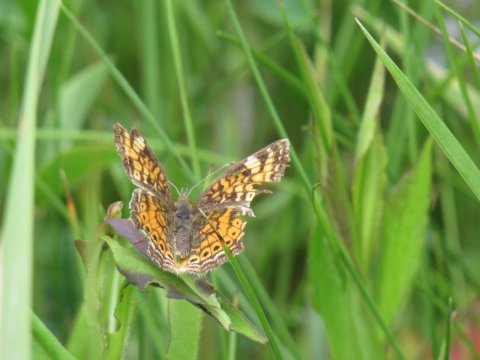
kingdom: Animalia
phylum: Arthropoda
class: Insecta
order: Lepidoptera
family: Nymphalidae
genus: Phyciodes
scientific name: Phyciodes tharos
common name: Pearl Crescent
